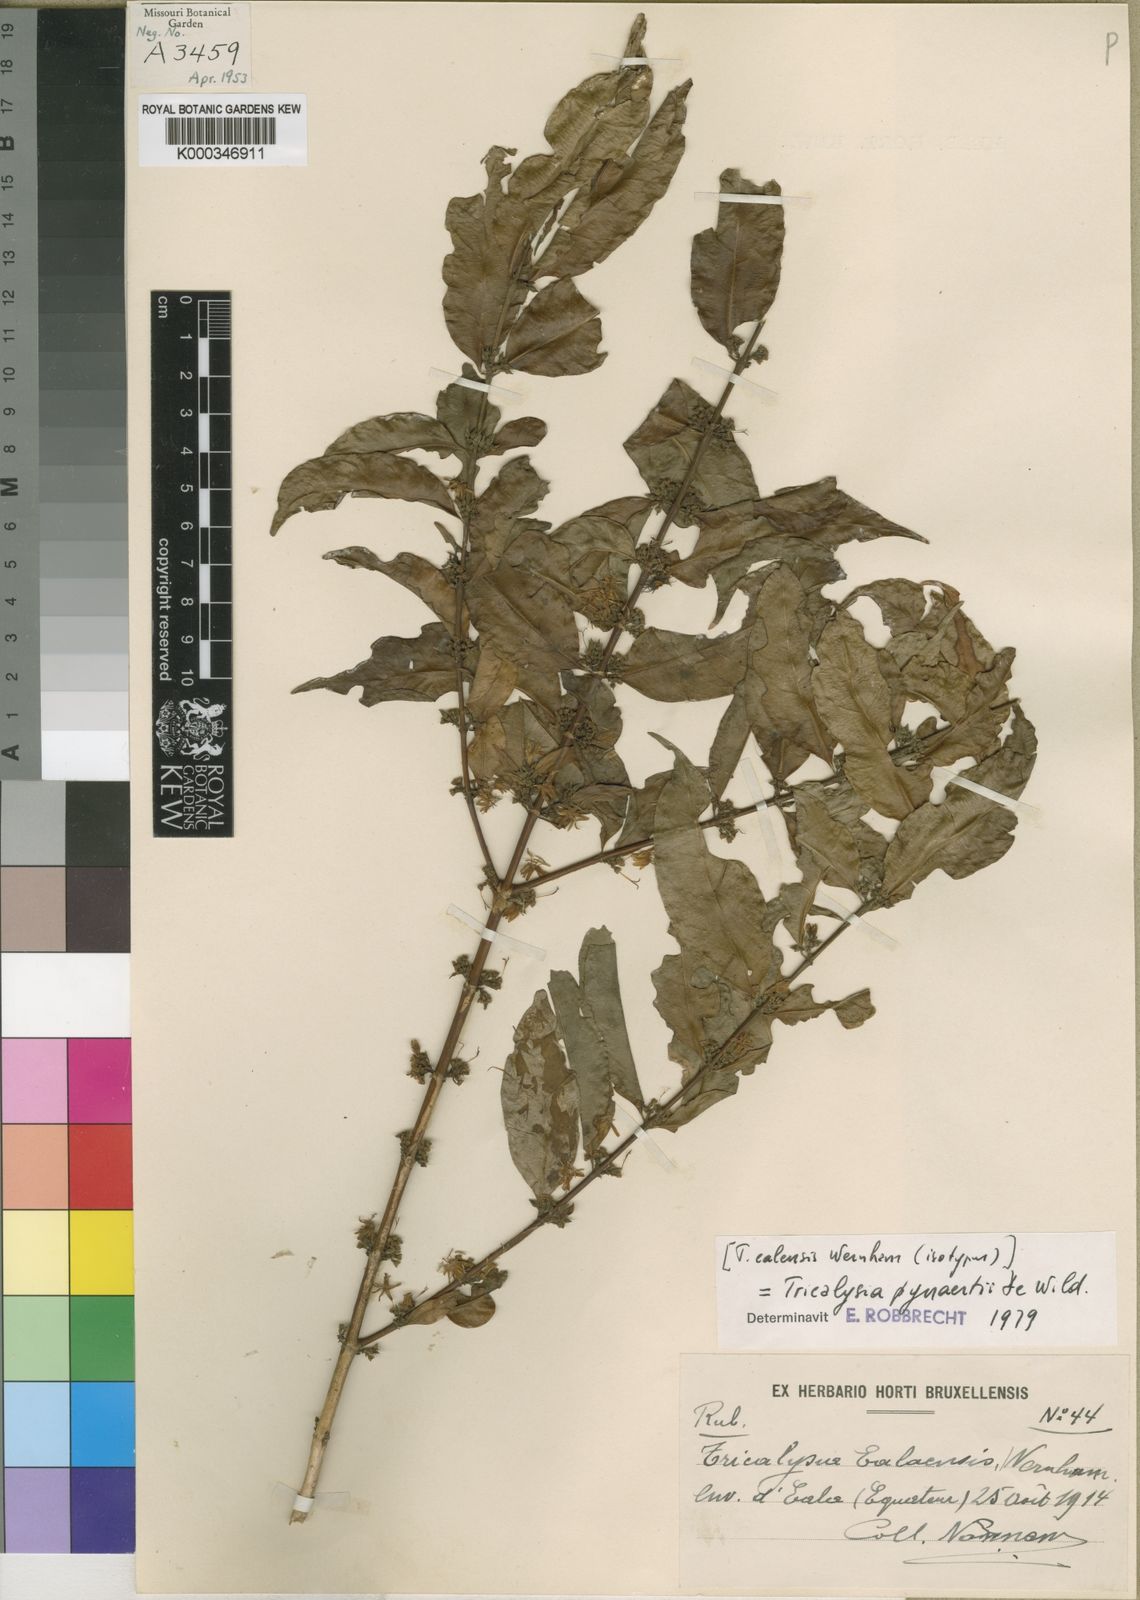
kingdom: Plantae
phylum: Tracheophyta
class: Magnoliopsida
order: Gentianales
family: Rubiaceae
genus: Tricalysia
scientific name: Tricalysia pynaertii
